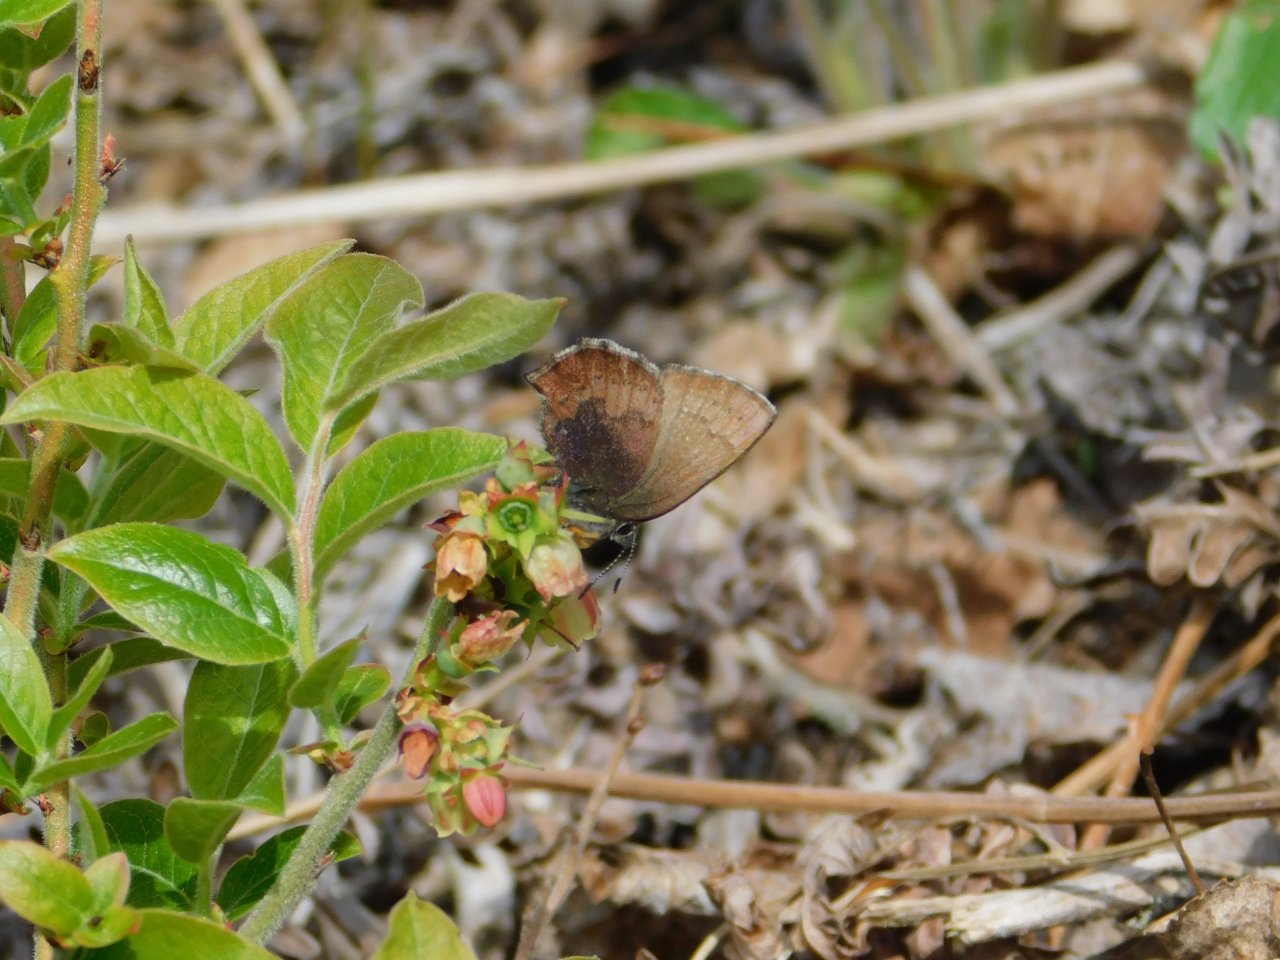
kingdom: Animalia
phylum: Arthropoda
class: Insecta
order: Lepidoptera
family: Lycaenidae
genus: Incisalia
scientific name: Incisalia irioides
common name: Brown Elfin
